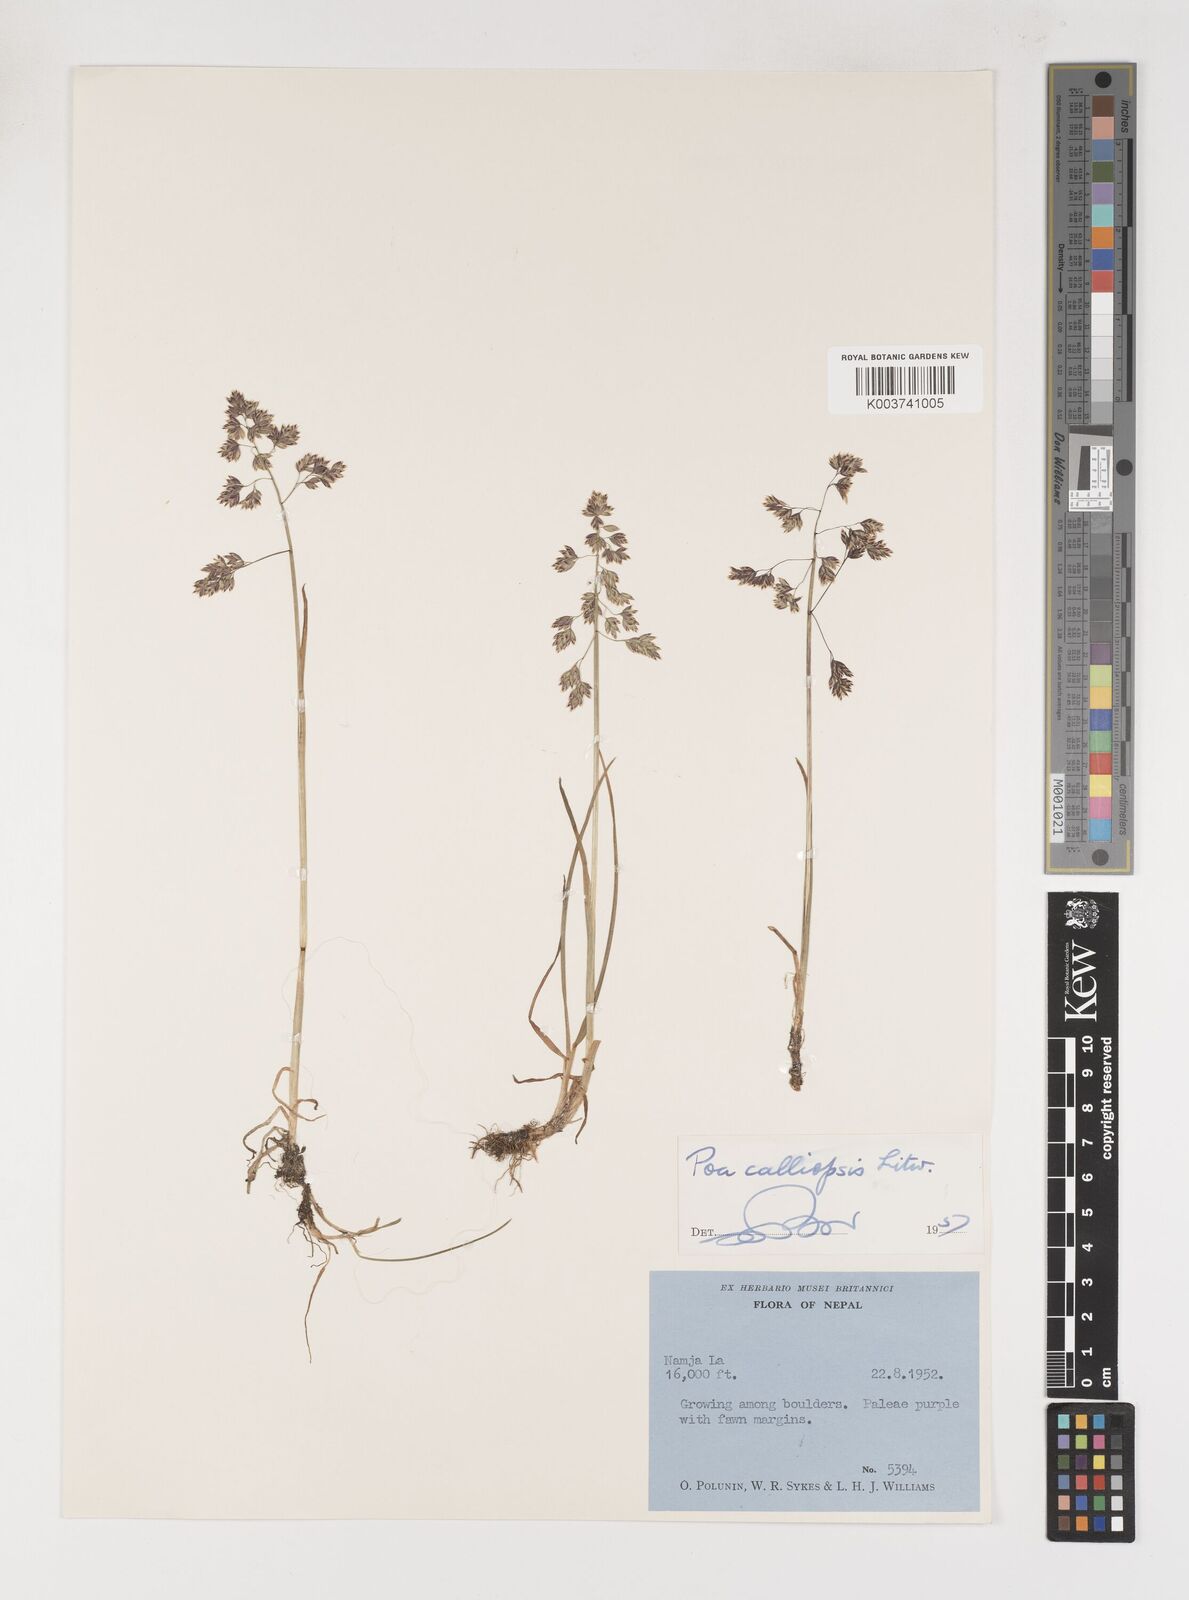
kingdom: Plantae
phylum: Tracheophyta
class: Liliopsida
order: Poales
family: Poaceae
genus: Poa
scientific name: Poa calliopsis
